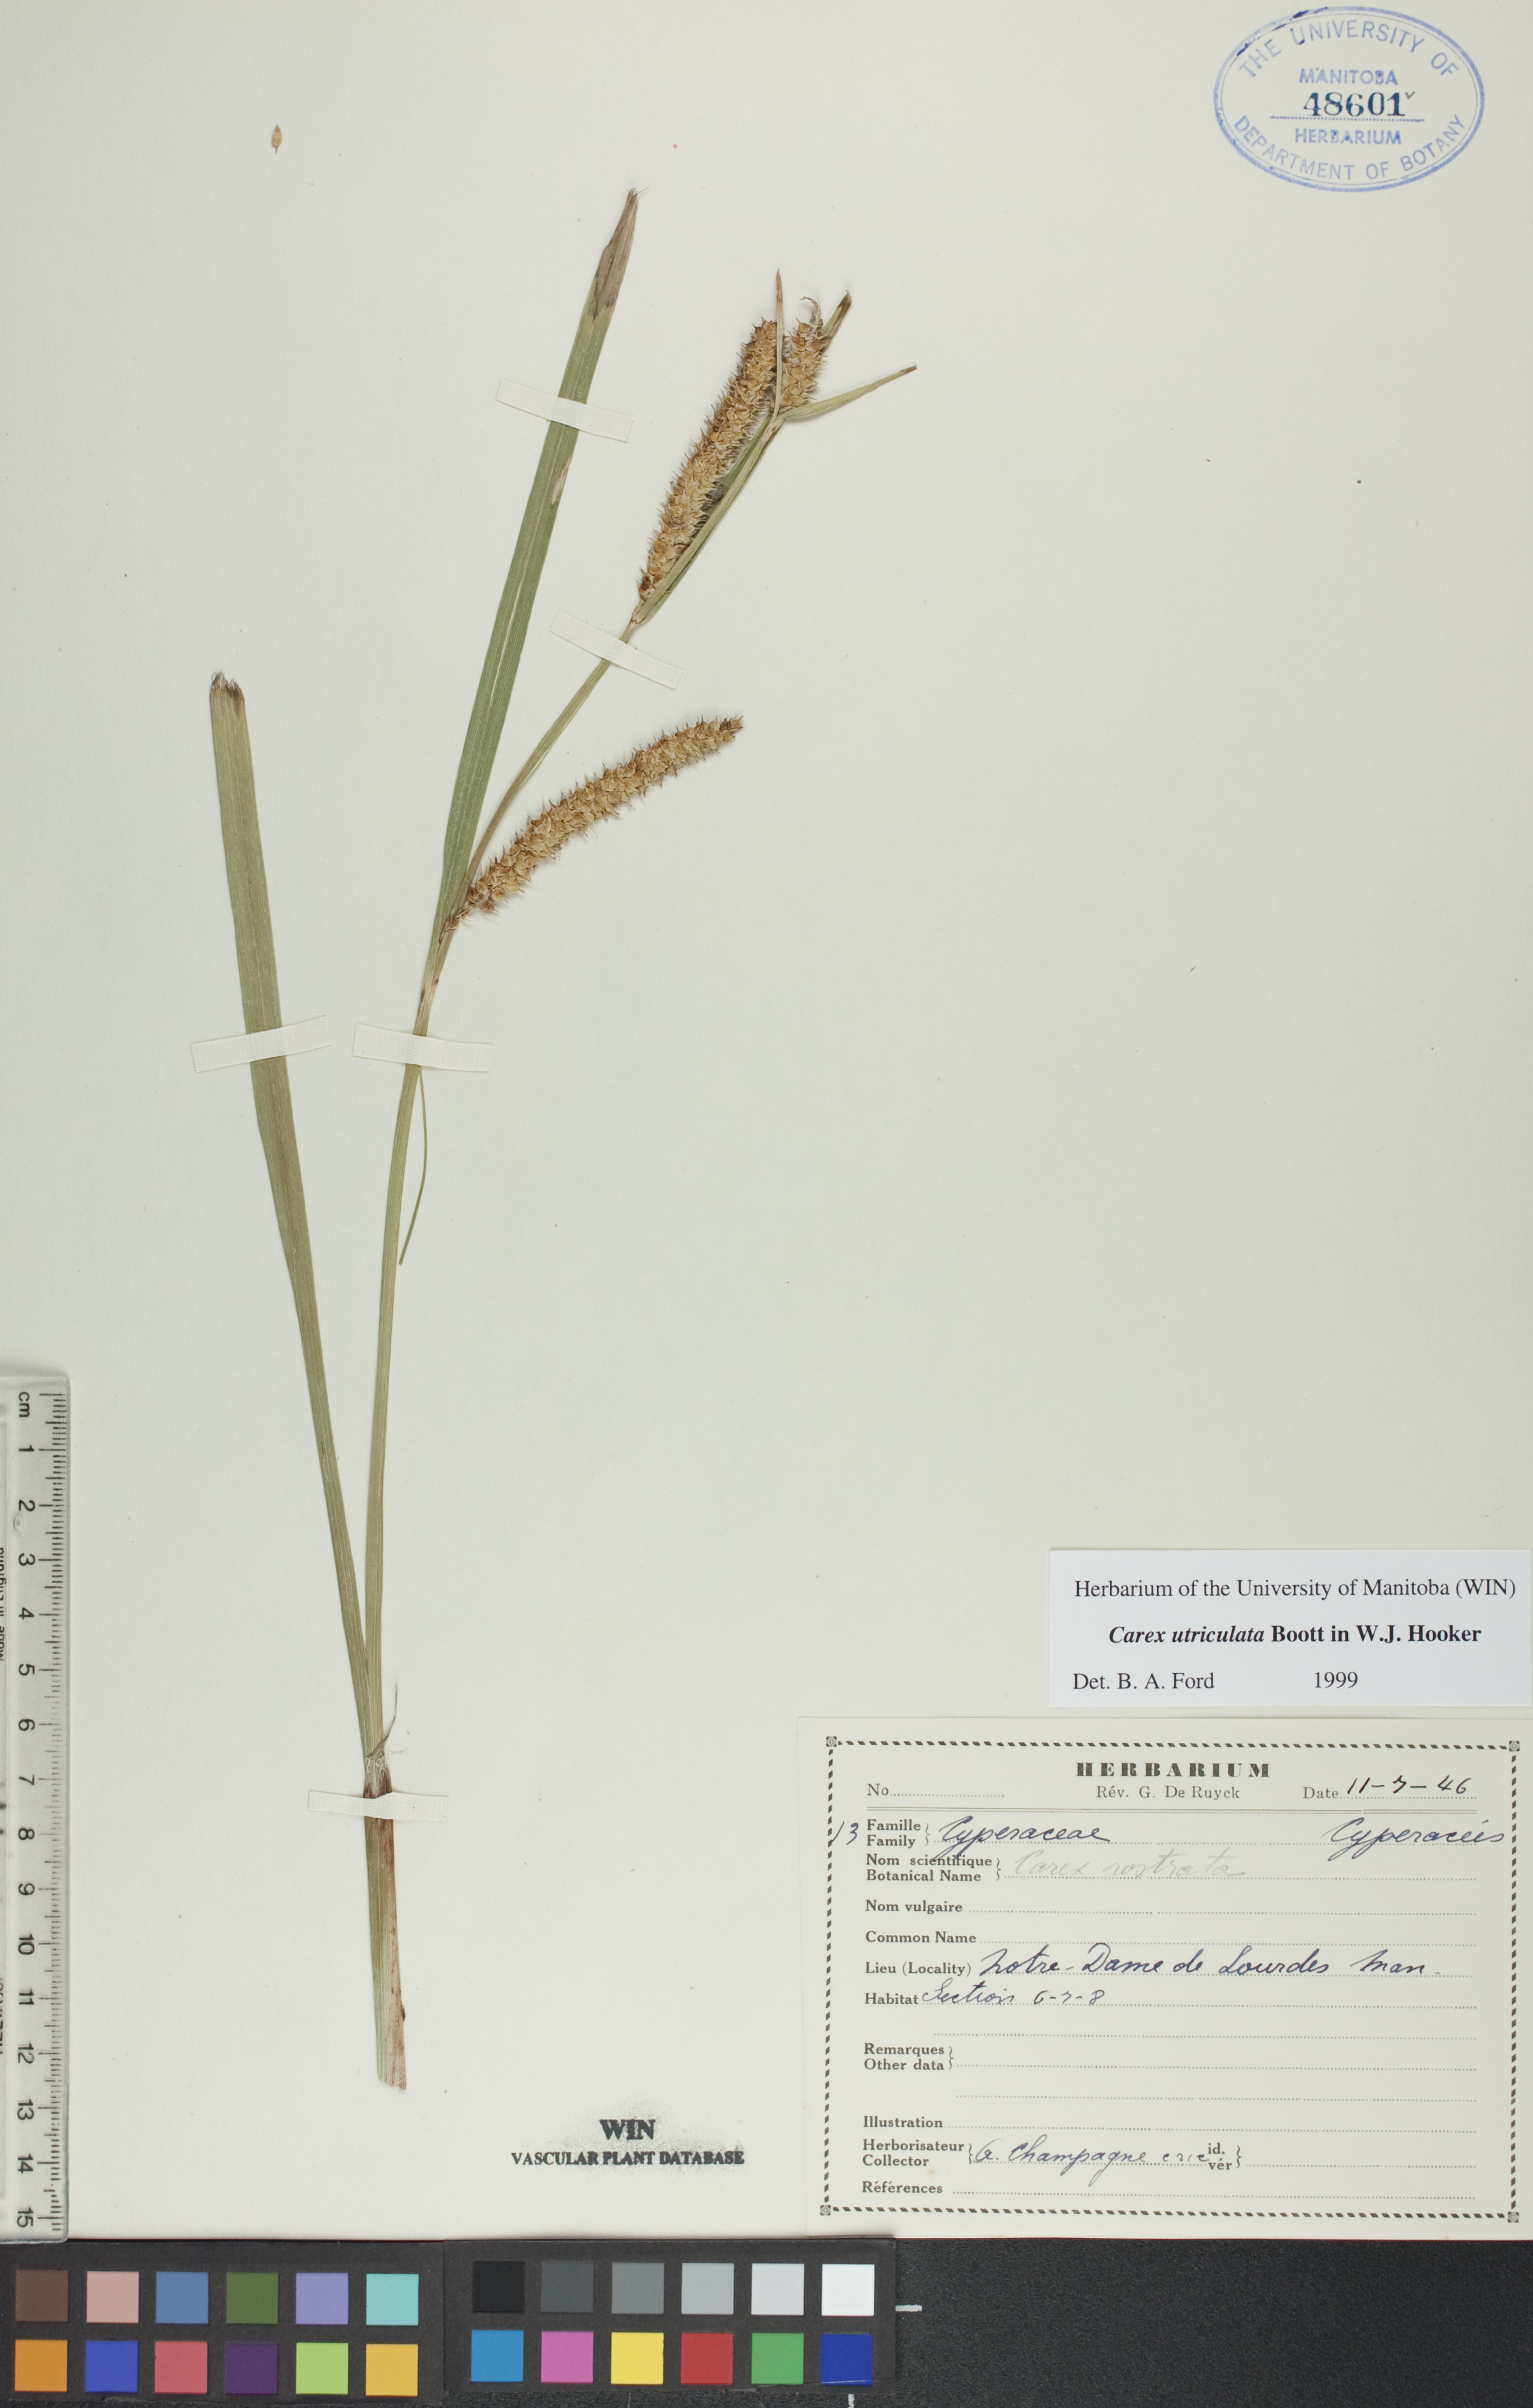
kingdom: Plantae
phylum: Tracheophyta
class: Liliopsida
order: Poales
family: Cyperaceae
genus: Carex
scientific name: Carex utriculata
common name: Beaked sedge
